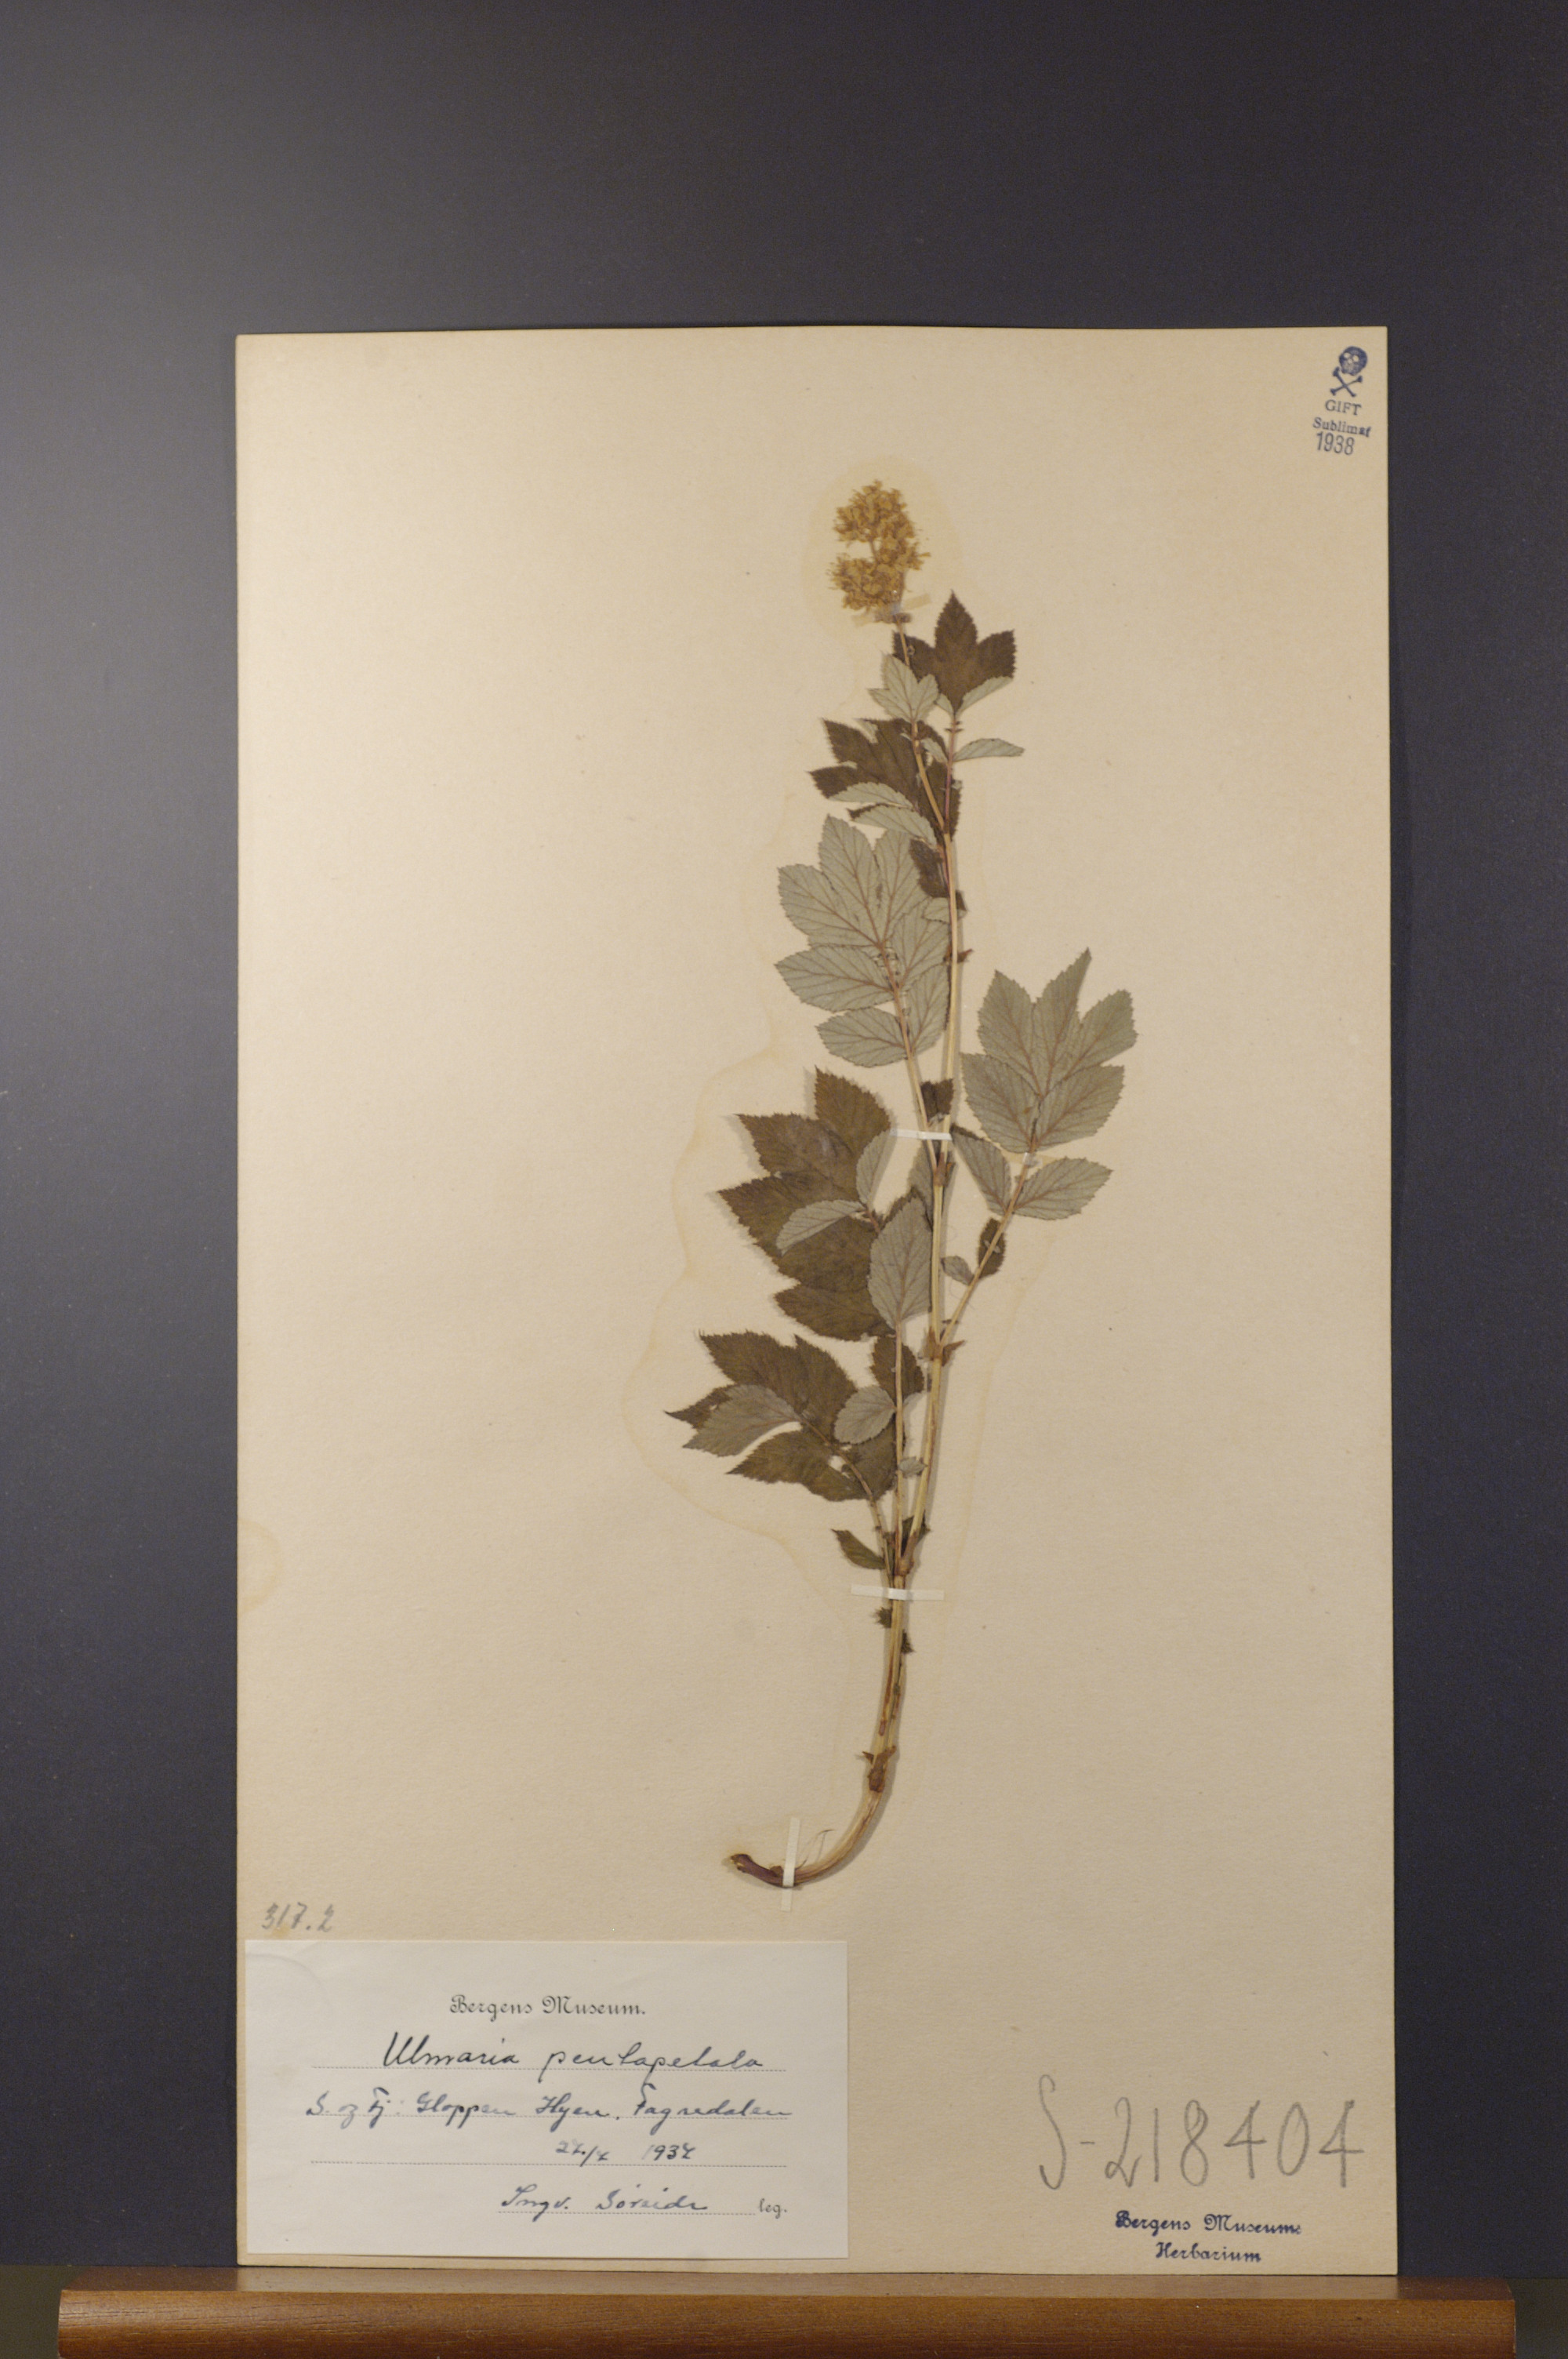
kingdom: Plantae
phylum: Tracheophyta
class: Magnoliopsida
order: Rosales
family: Rosaceae
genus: Filipendula
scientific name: Filipendula ulmaria
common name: Meadowsweet
